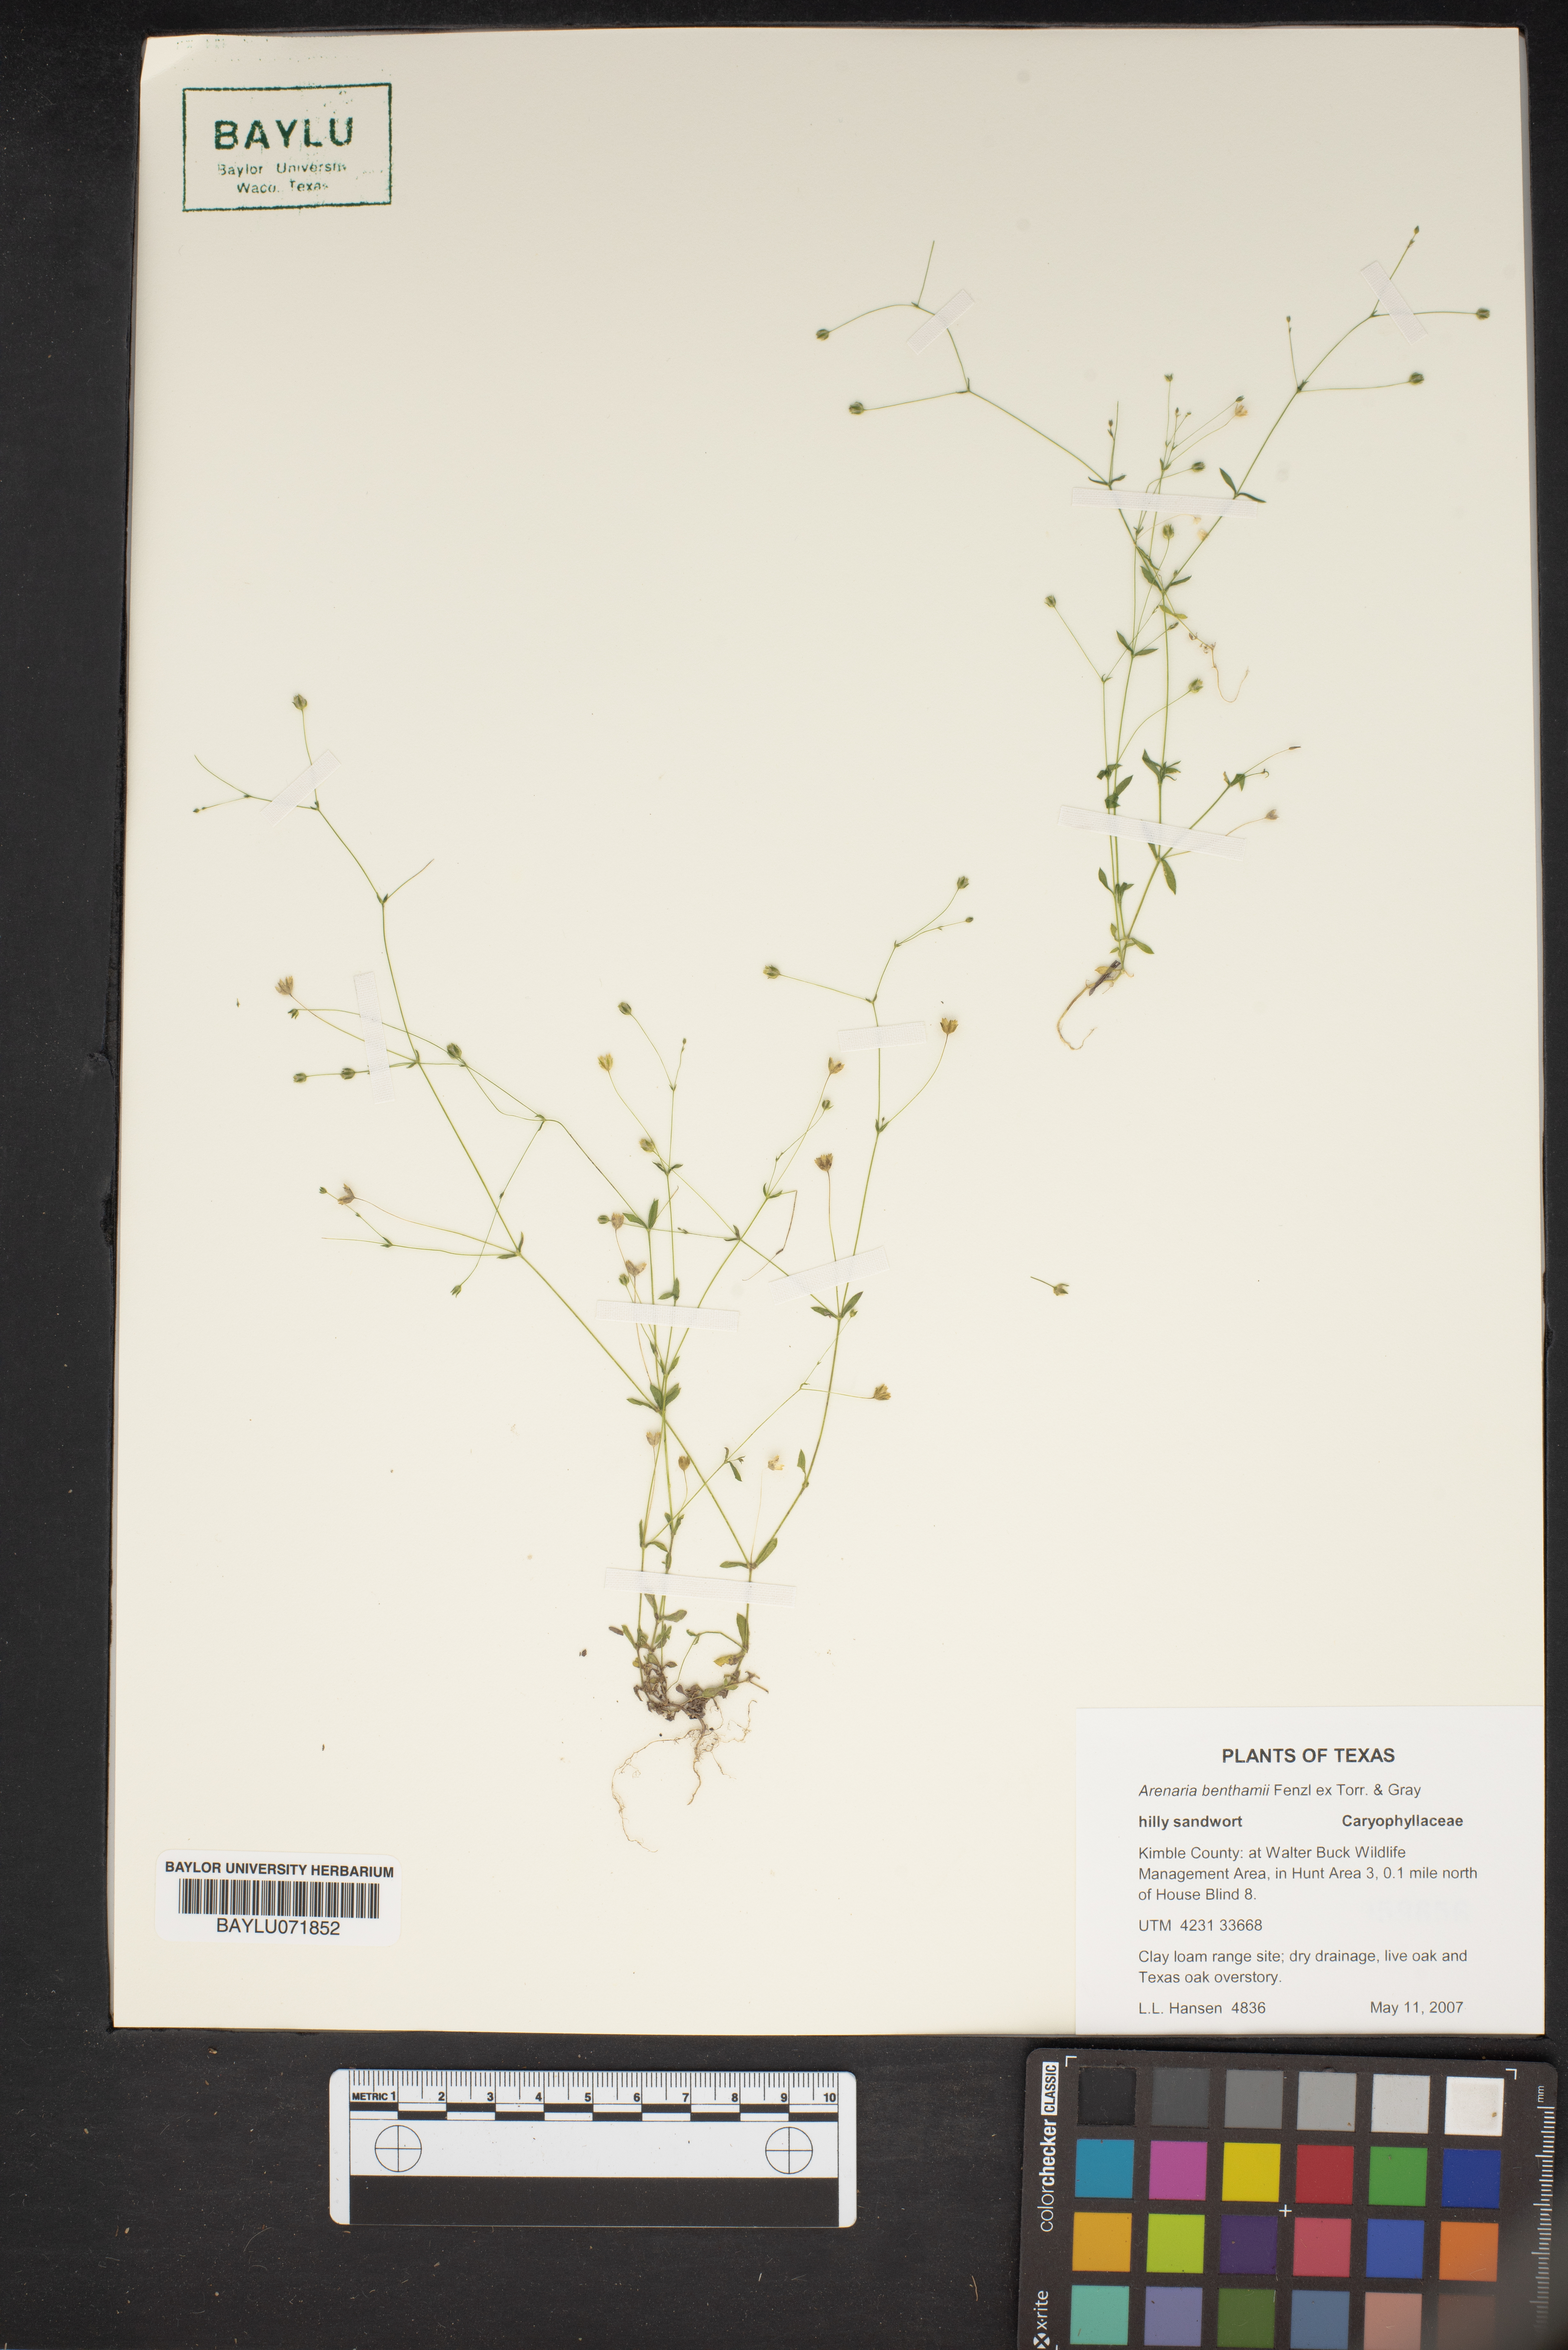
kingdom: Plantae
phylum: Tracheophyta
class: Magnoliopsida
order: Caryophyllales
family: Caryophyllaceae
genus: Arenaria
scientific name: Arenaria benthamii
